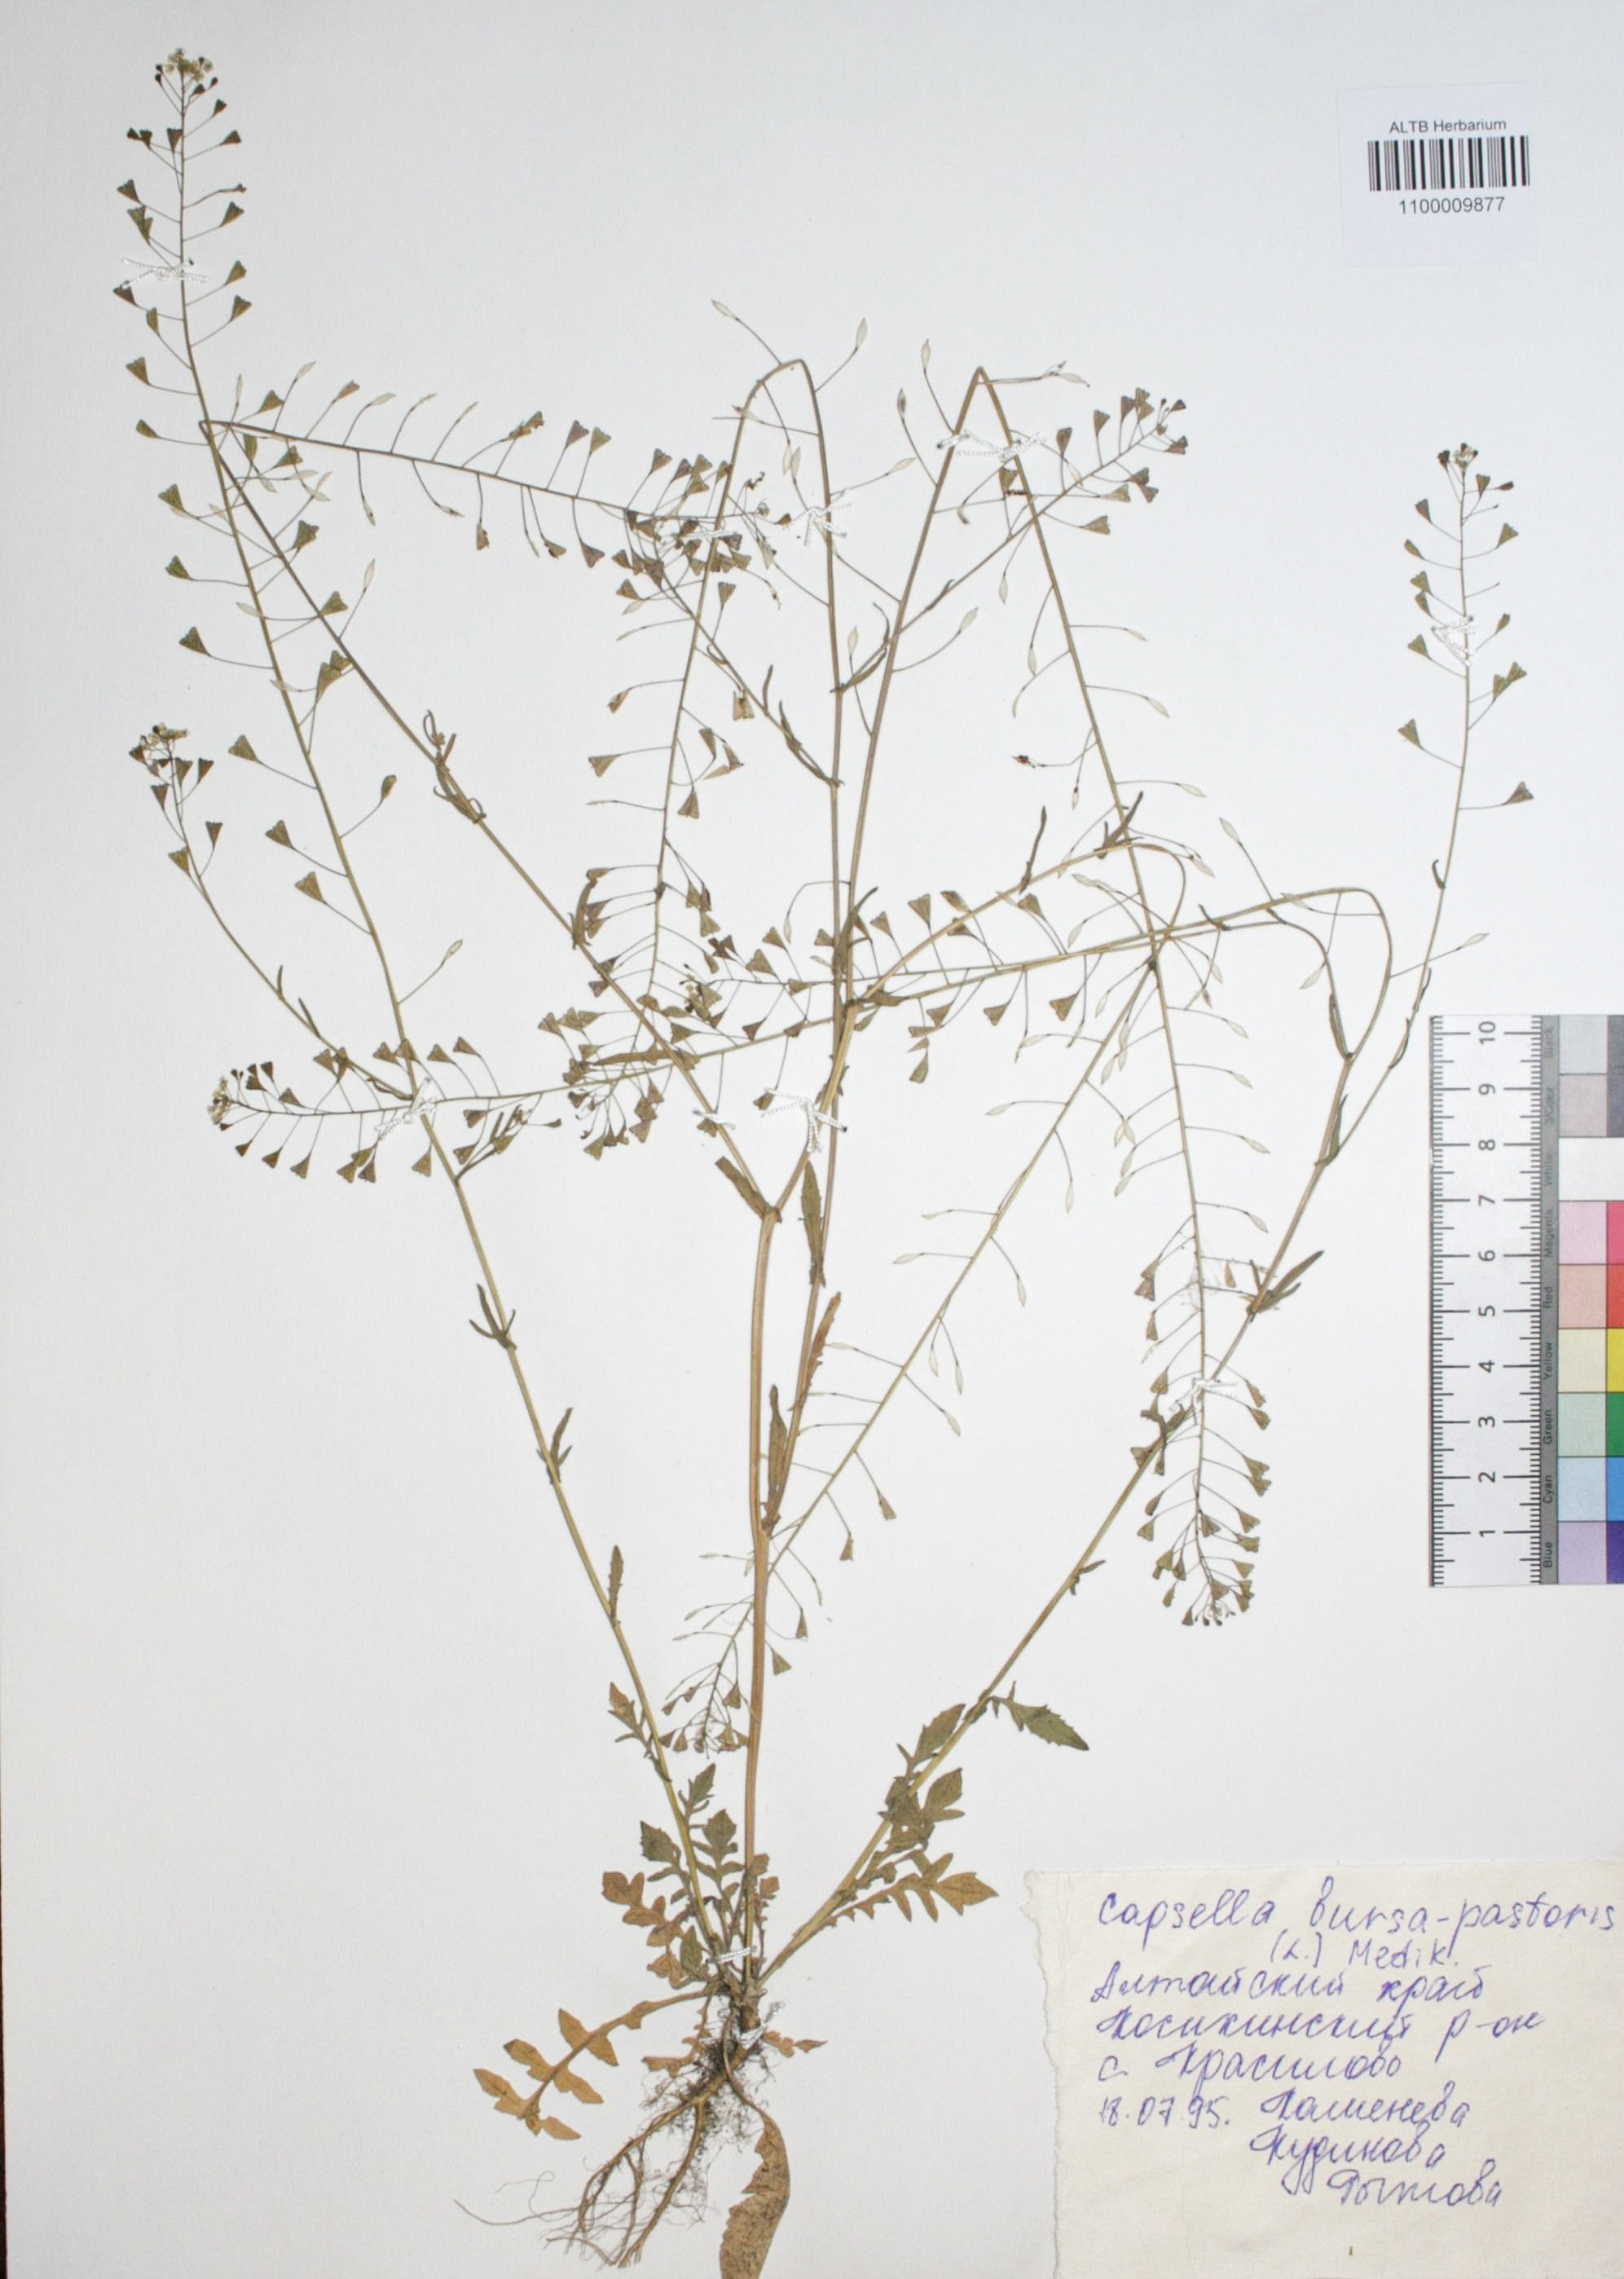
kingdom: Plantae
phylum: Tracheophyta
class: Magnoliopsida
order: Brassicales
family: Brassicaceae
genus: Capsella
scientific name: Capsella bursa-pastoris
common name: Shepherd's purse
